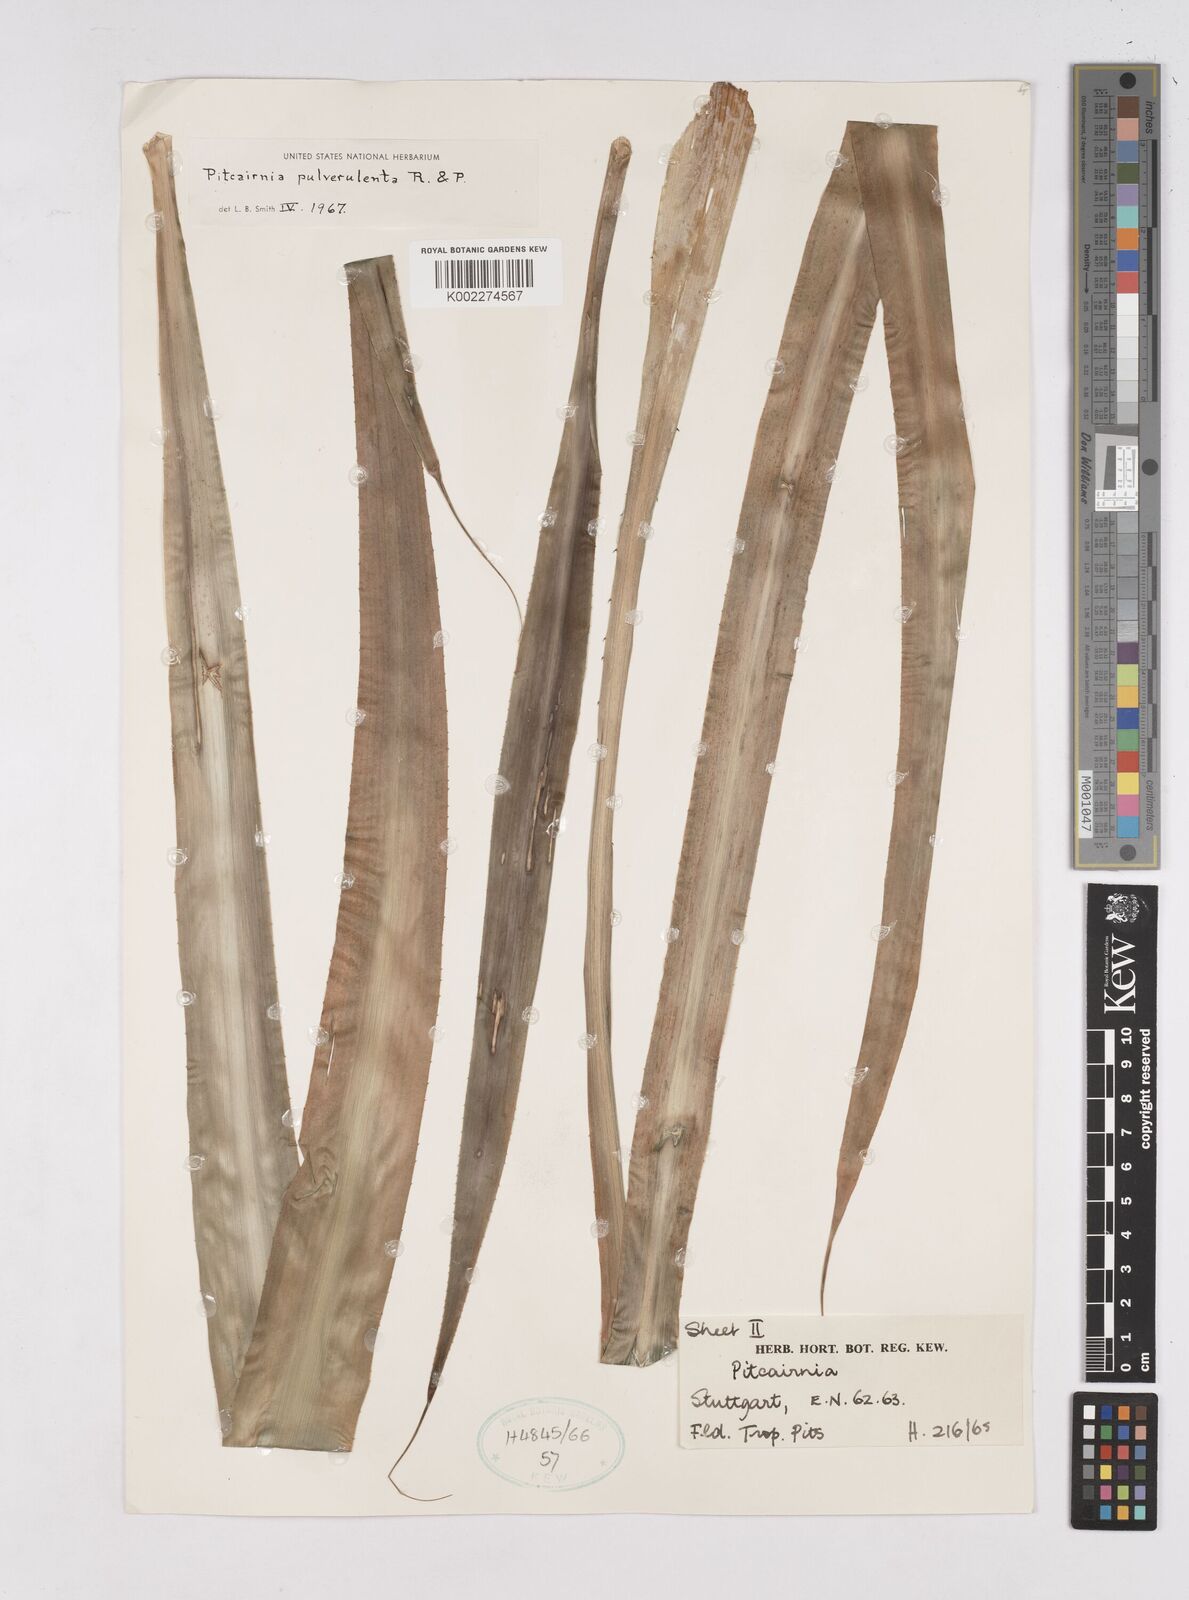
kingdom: Plantae
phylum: Tracheophyta
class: Liliopsida
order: Poales
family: Bromeliaceae
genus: Pitcairnia
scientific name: Pitcairnia pulverulenta
